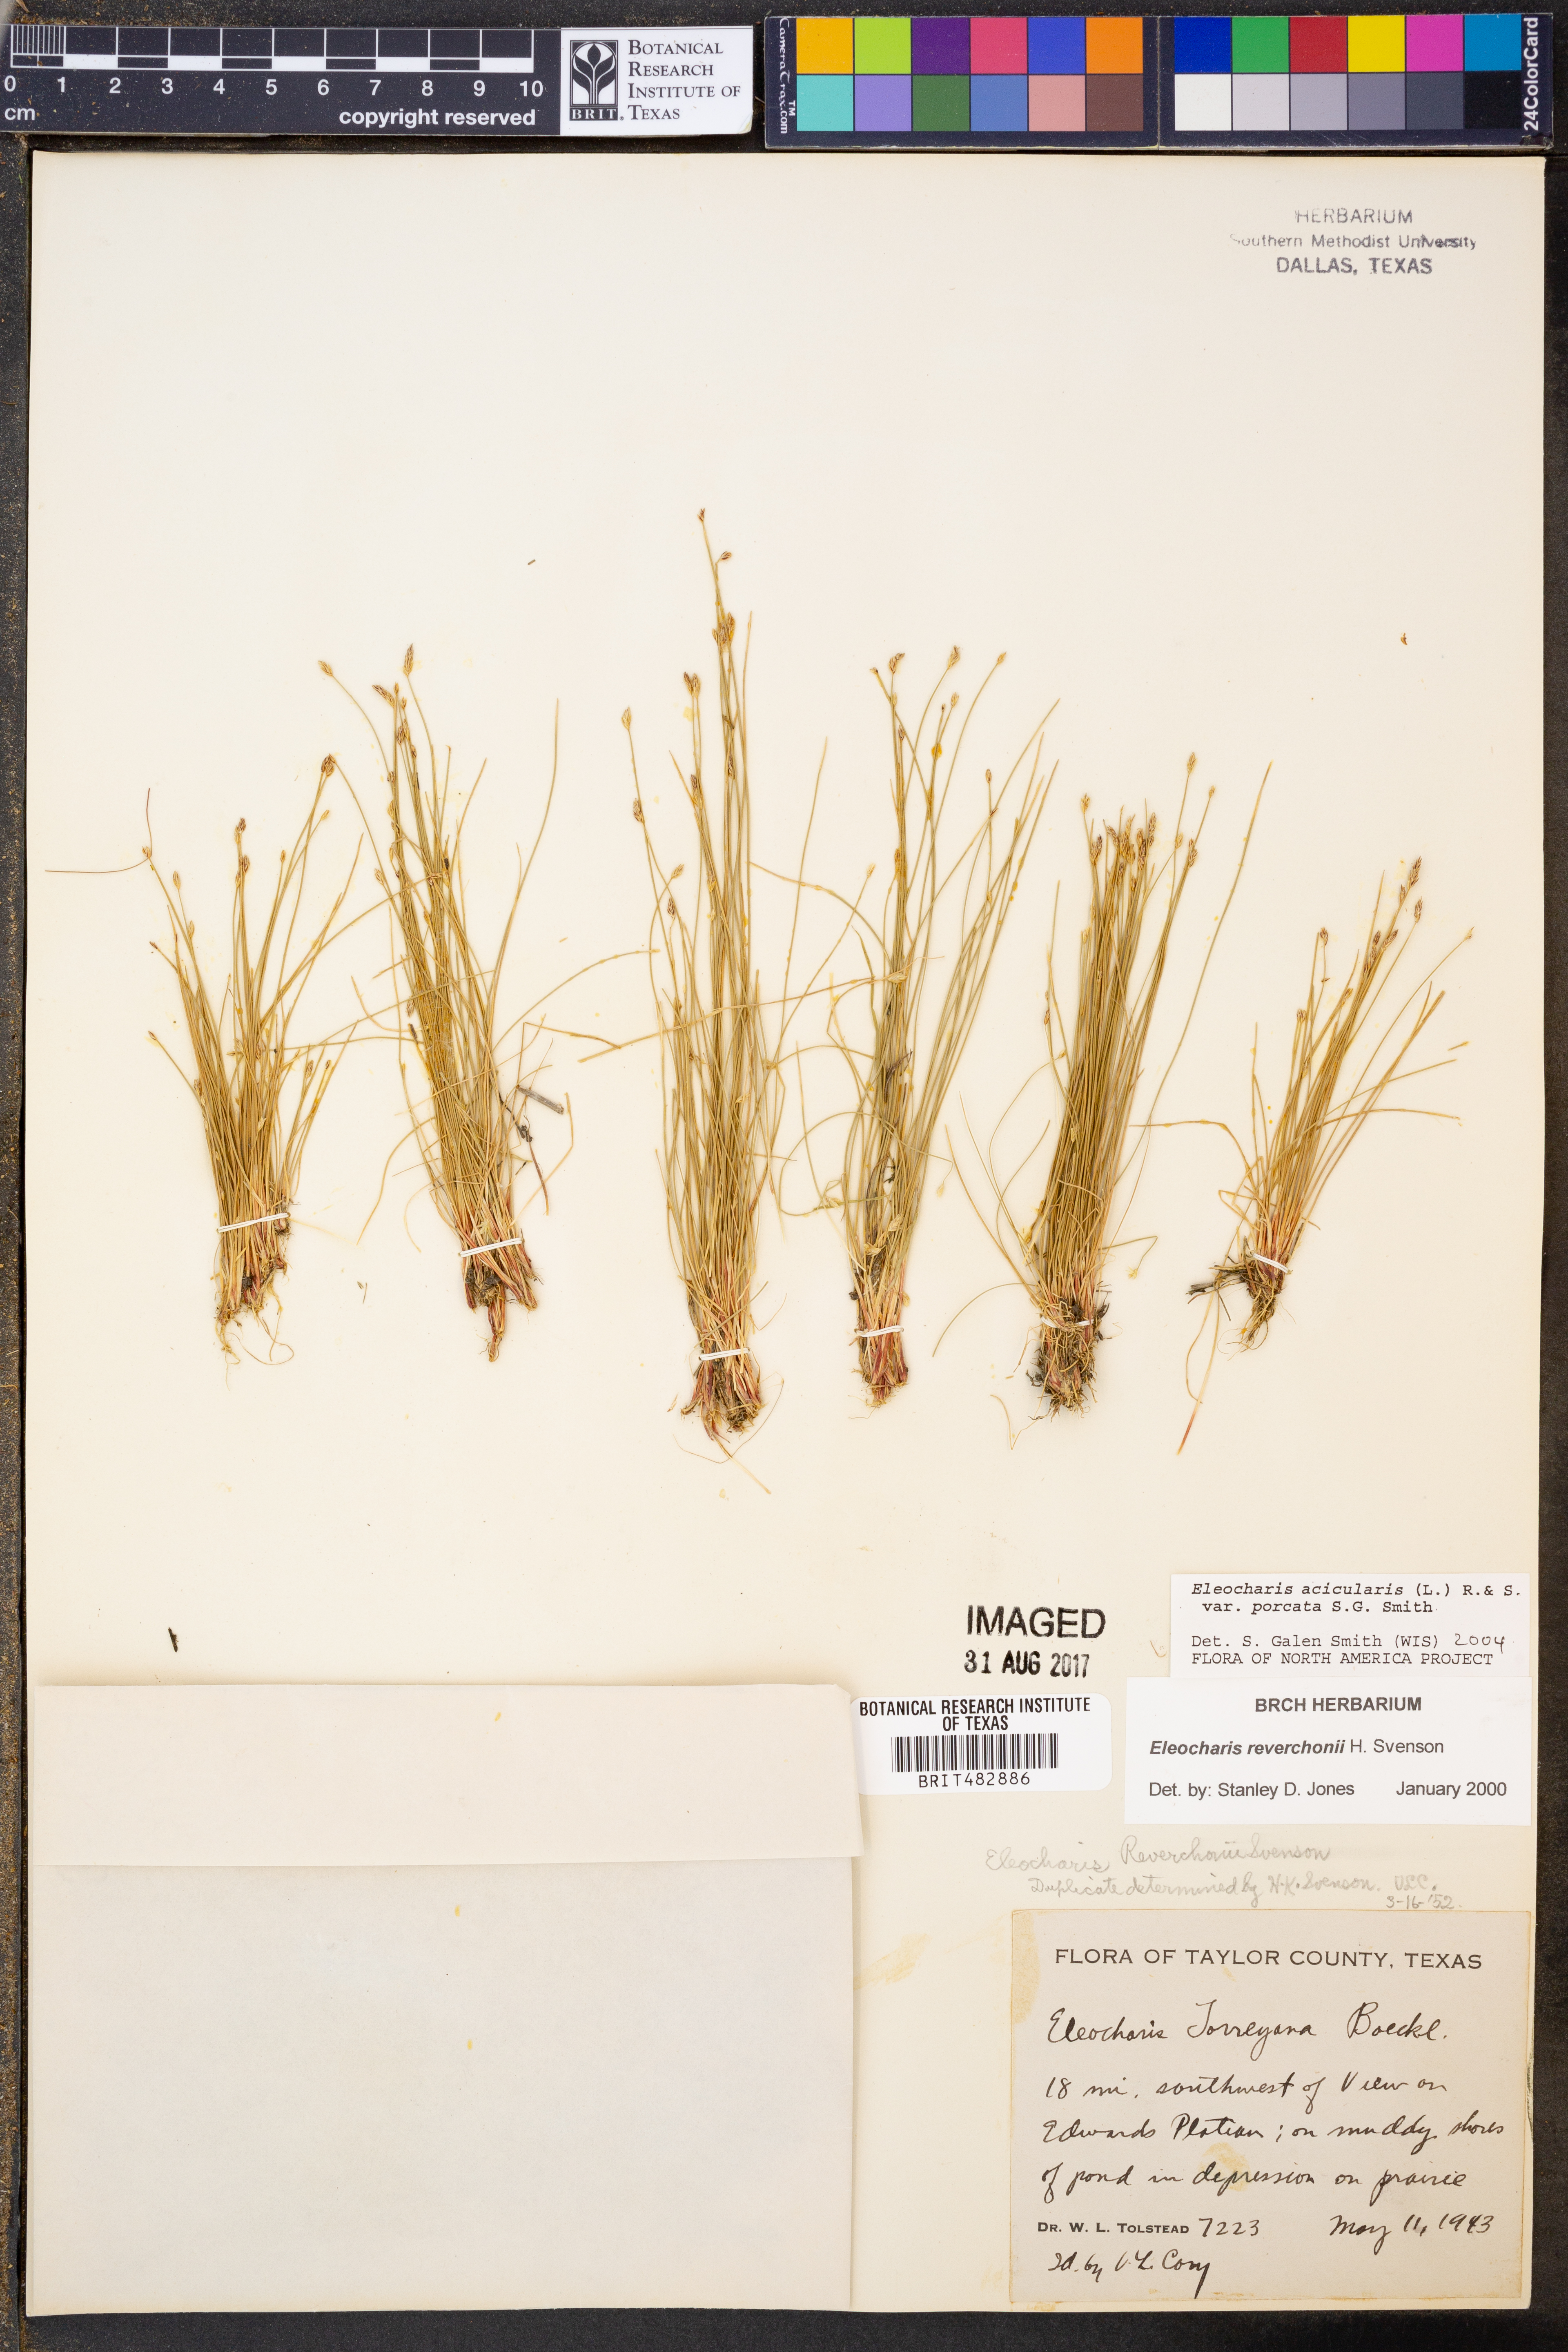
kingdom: Plantae
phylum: Tracheophyta
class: Liliopsida
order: Poales
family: Cyperaceae
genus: Eleocharis
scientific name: Eleocharis acicularis
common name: Needle spike-rush
